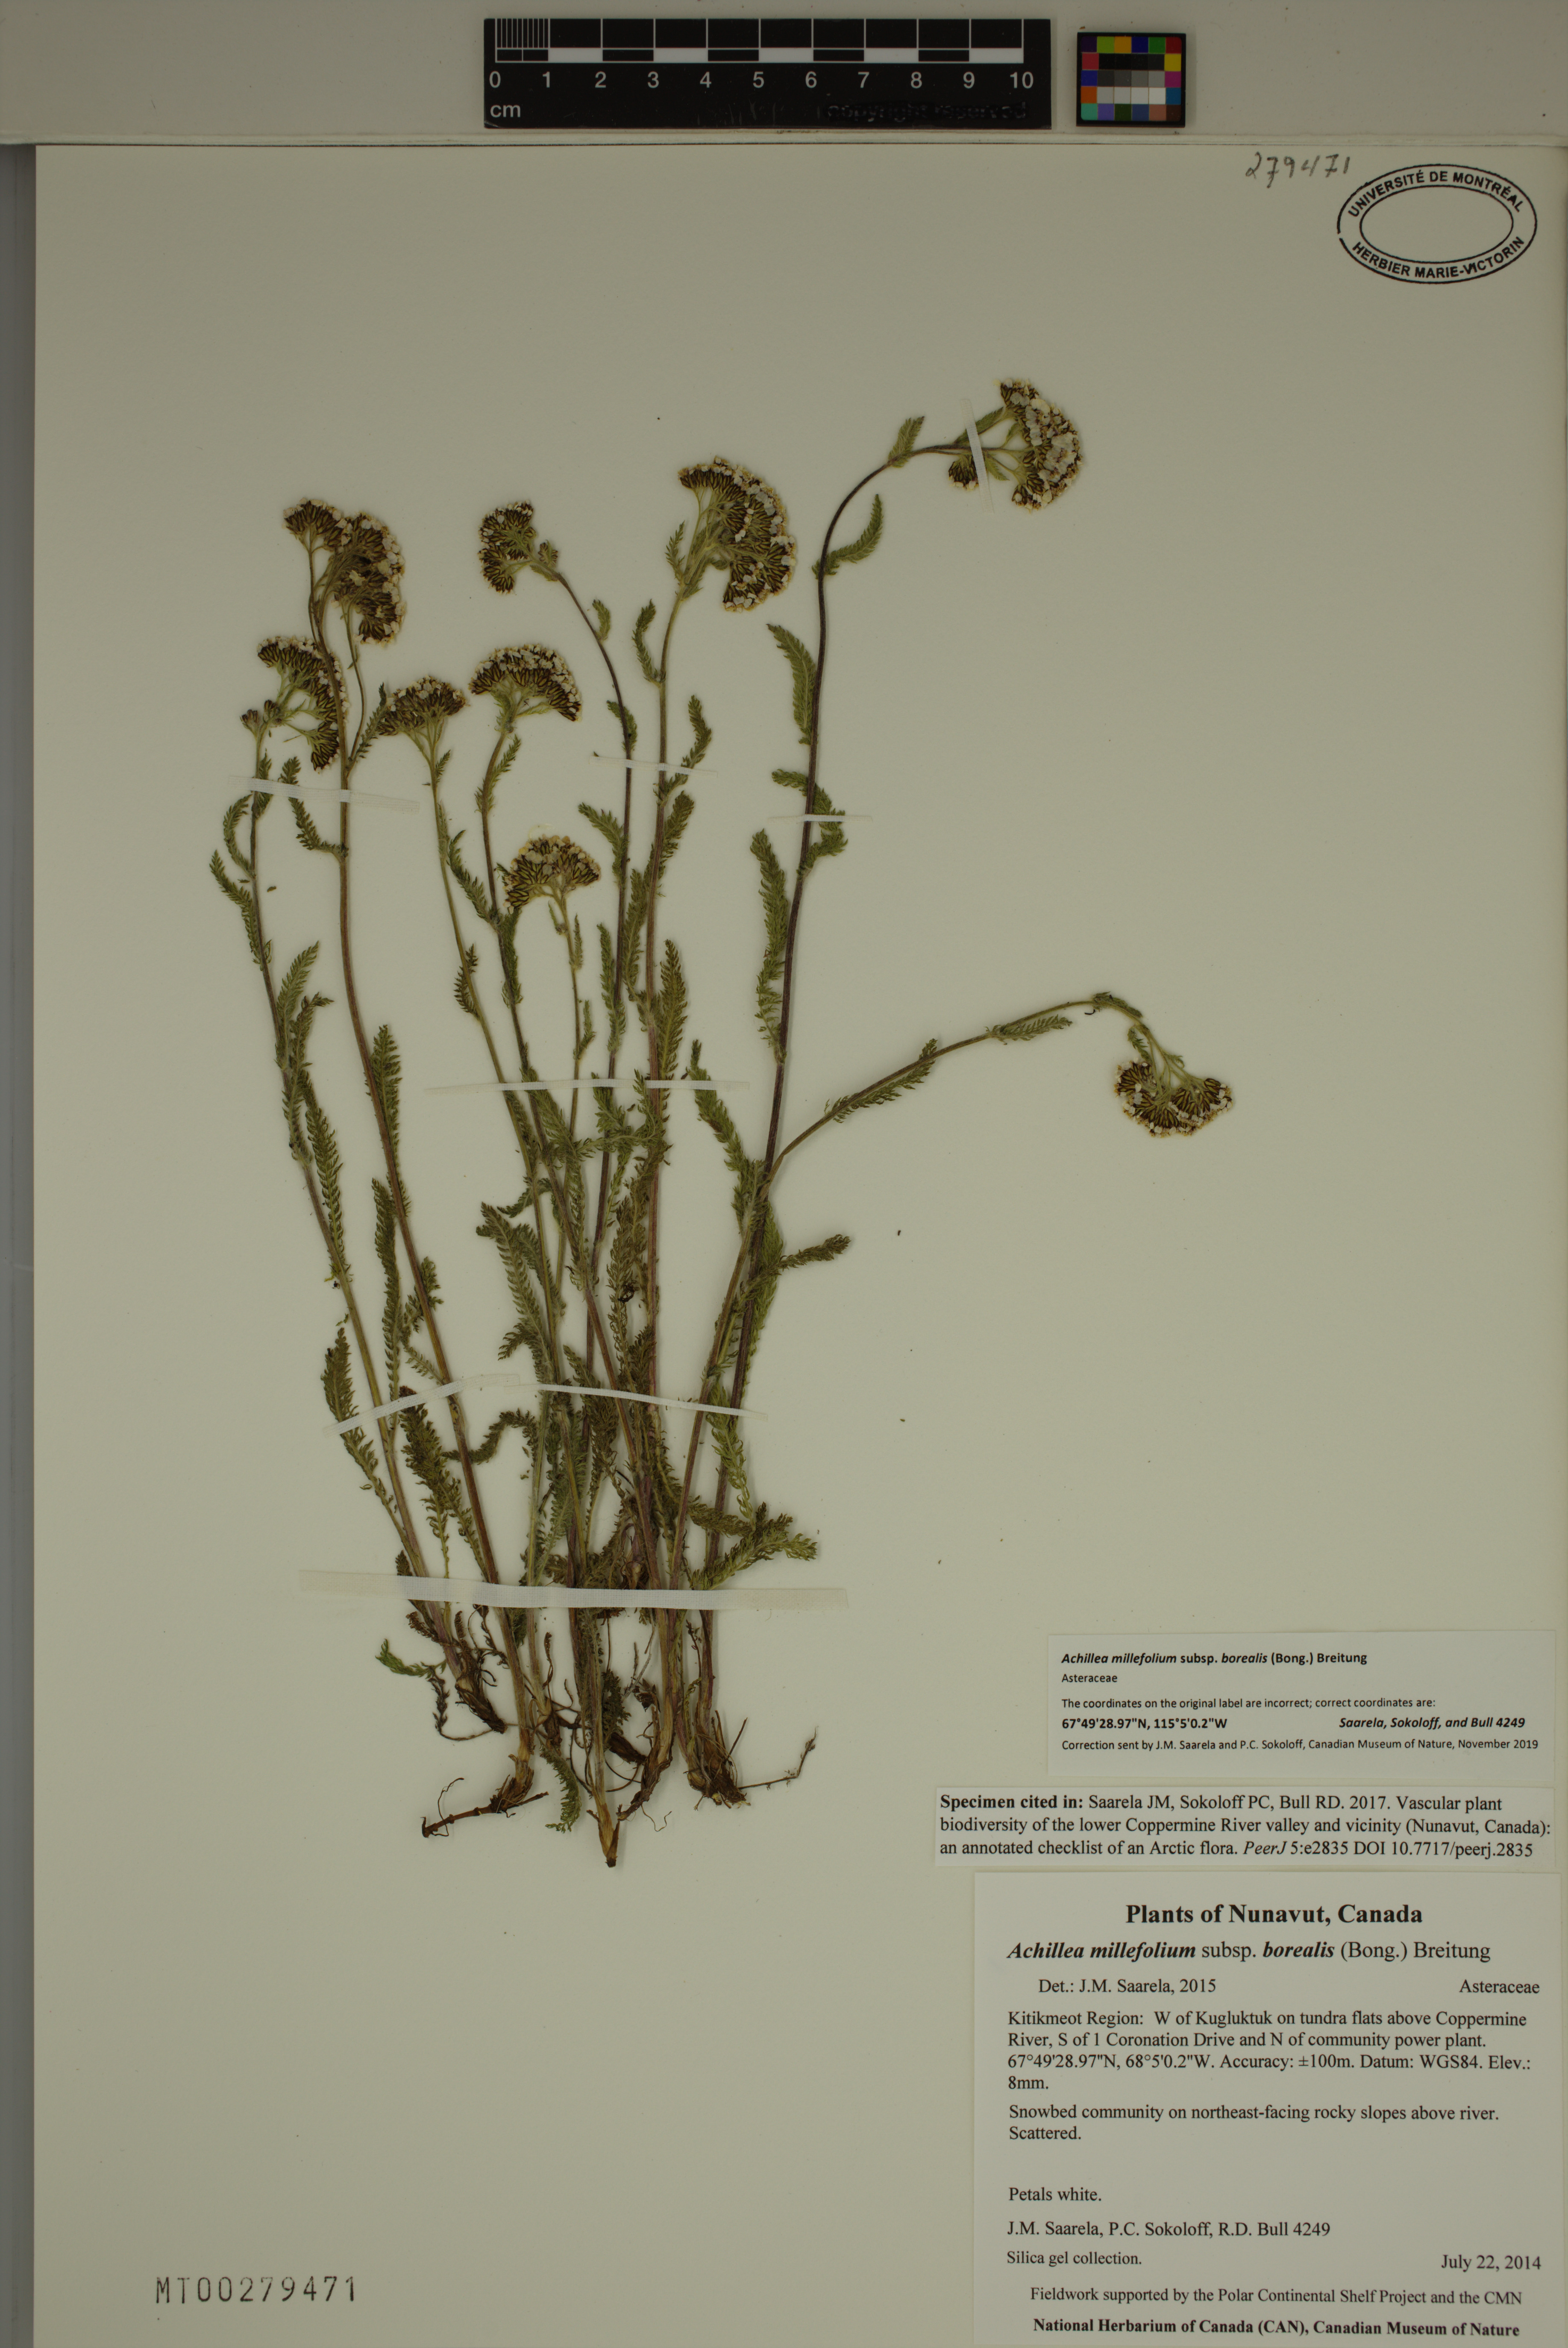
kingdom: Plantae
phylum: Tracheophyta
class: Magnoliopsida
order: Asterales
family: Asteraceae
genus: Achillea
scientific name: Achillea millefolium
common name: Yarrow
